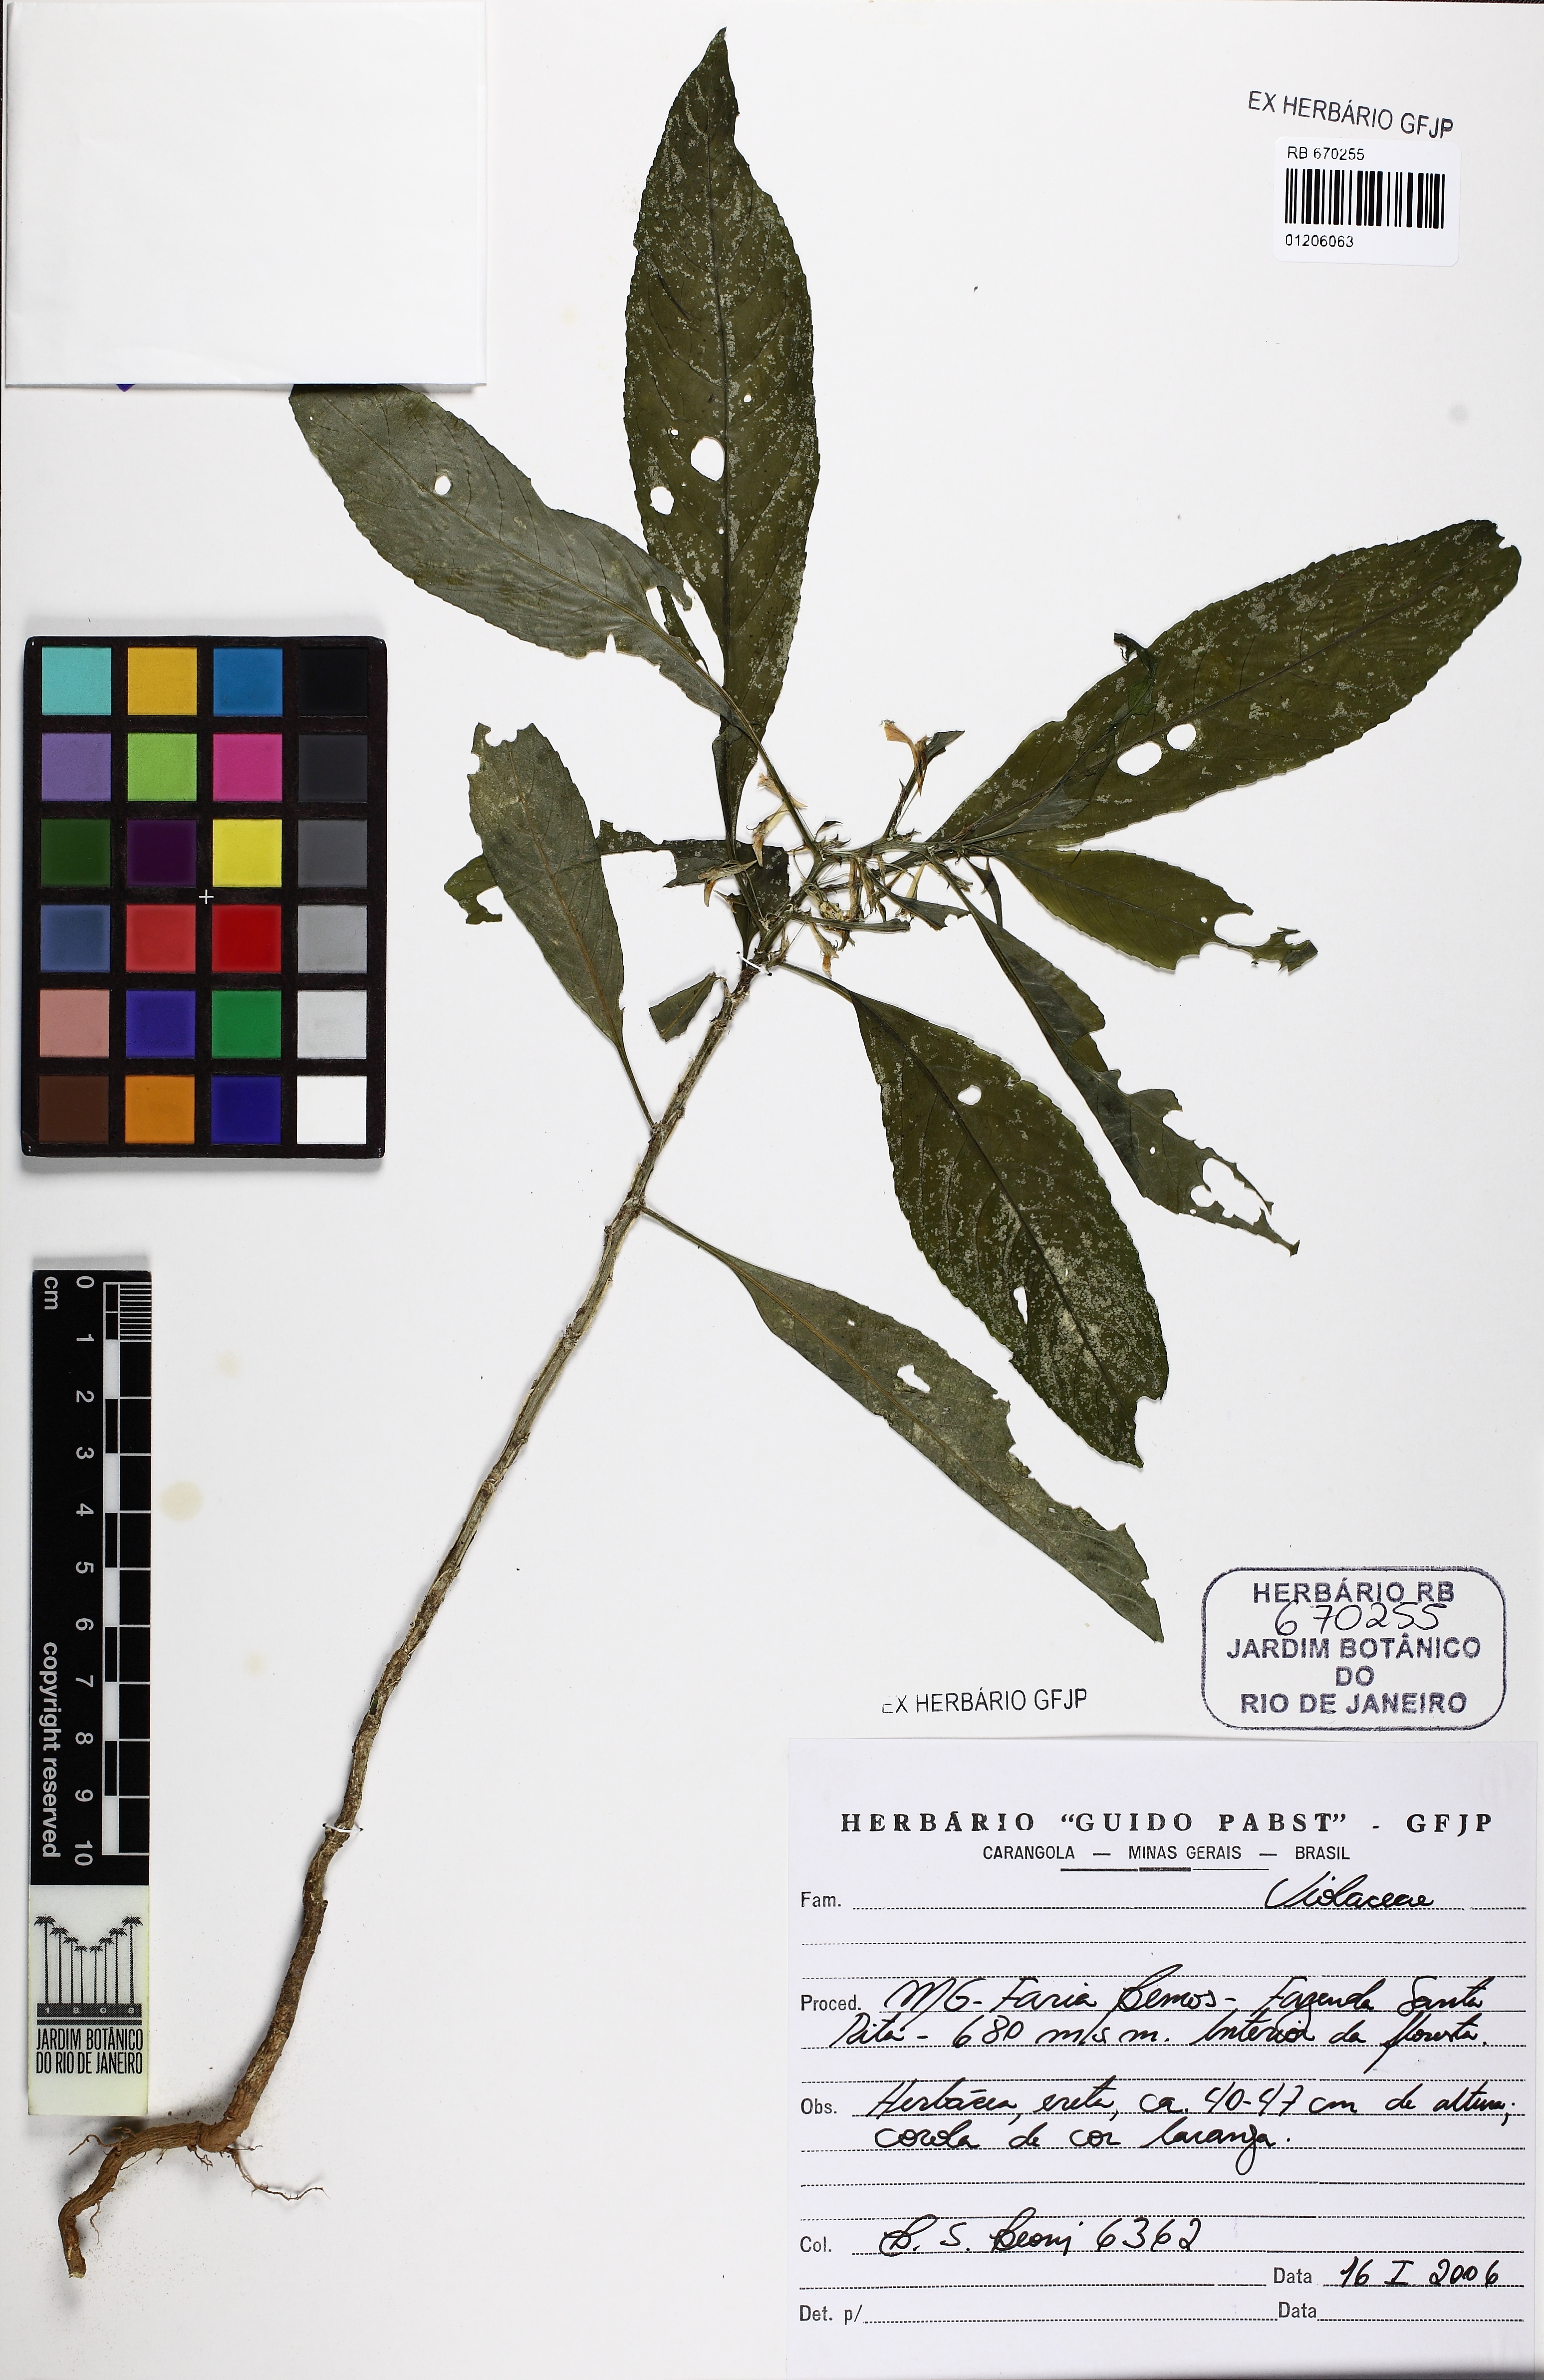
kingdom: Plantae
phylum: Tracheophyta
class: Magnoliopsida
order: Malpighiales
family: Violaceae
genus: Noisettia
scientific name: Noisettia orchidiflora
